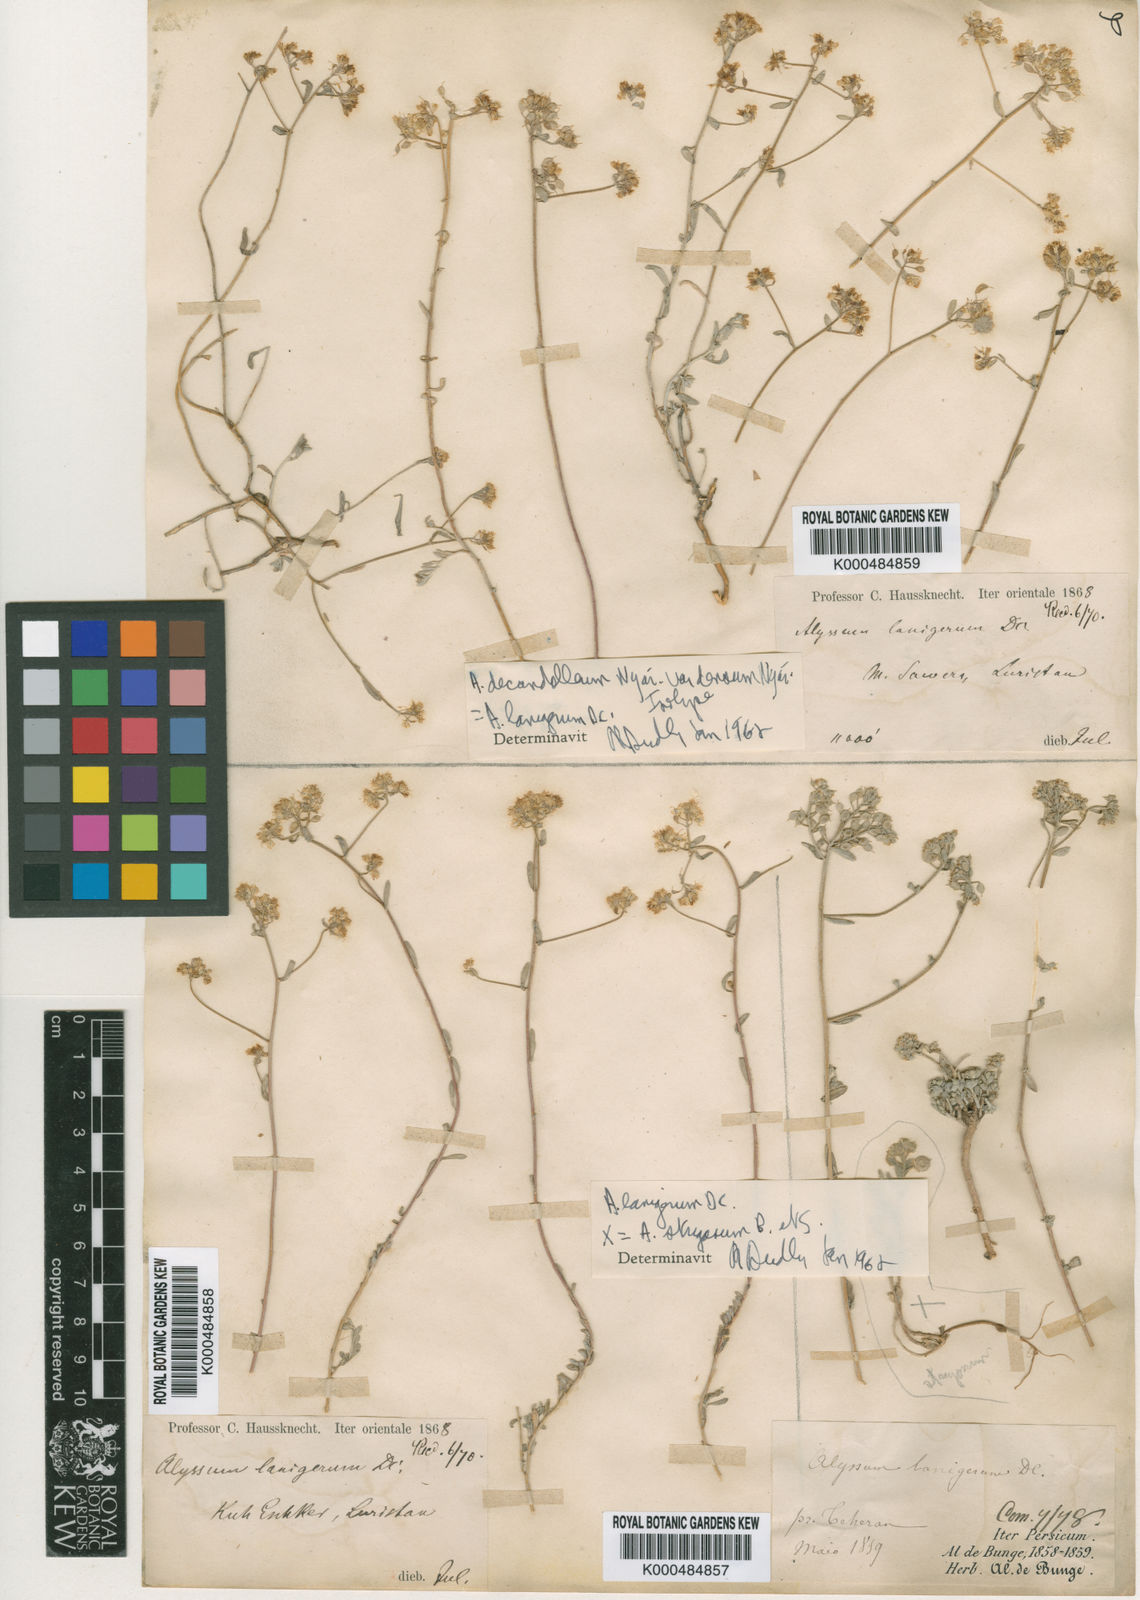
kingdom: Plantae
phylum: Tracheophyta
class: Magnoliopsida
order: Brassicales
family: Brassicaceae
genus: Odontarrhena
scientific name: Odontarrhena tortuosa
